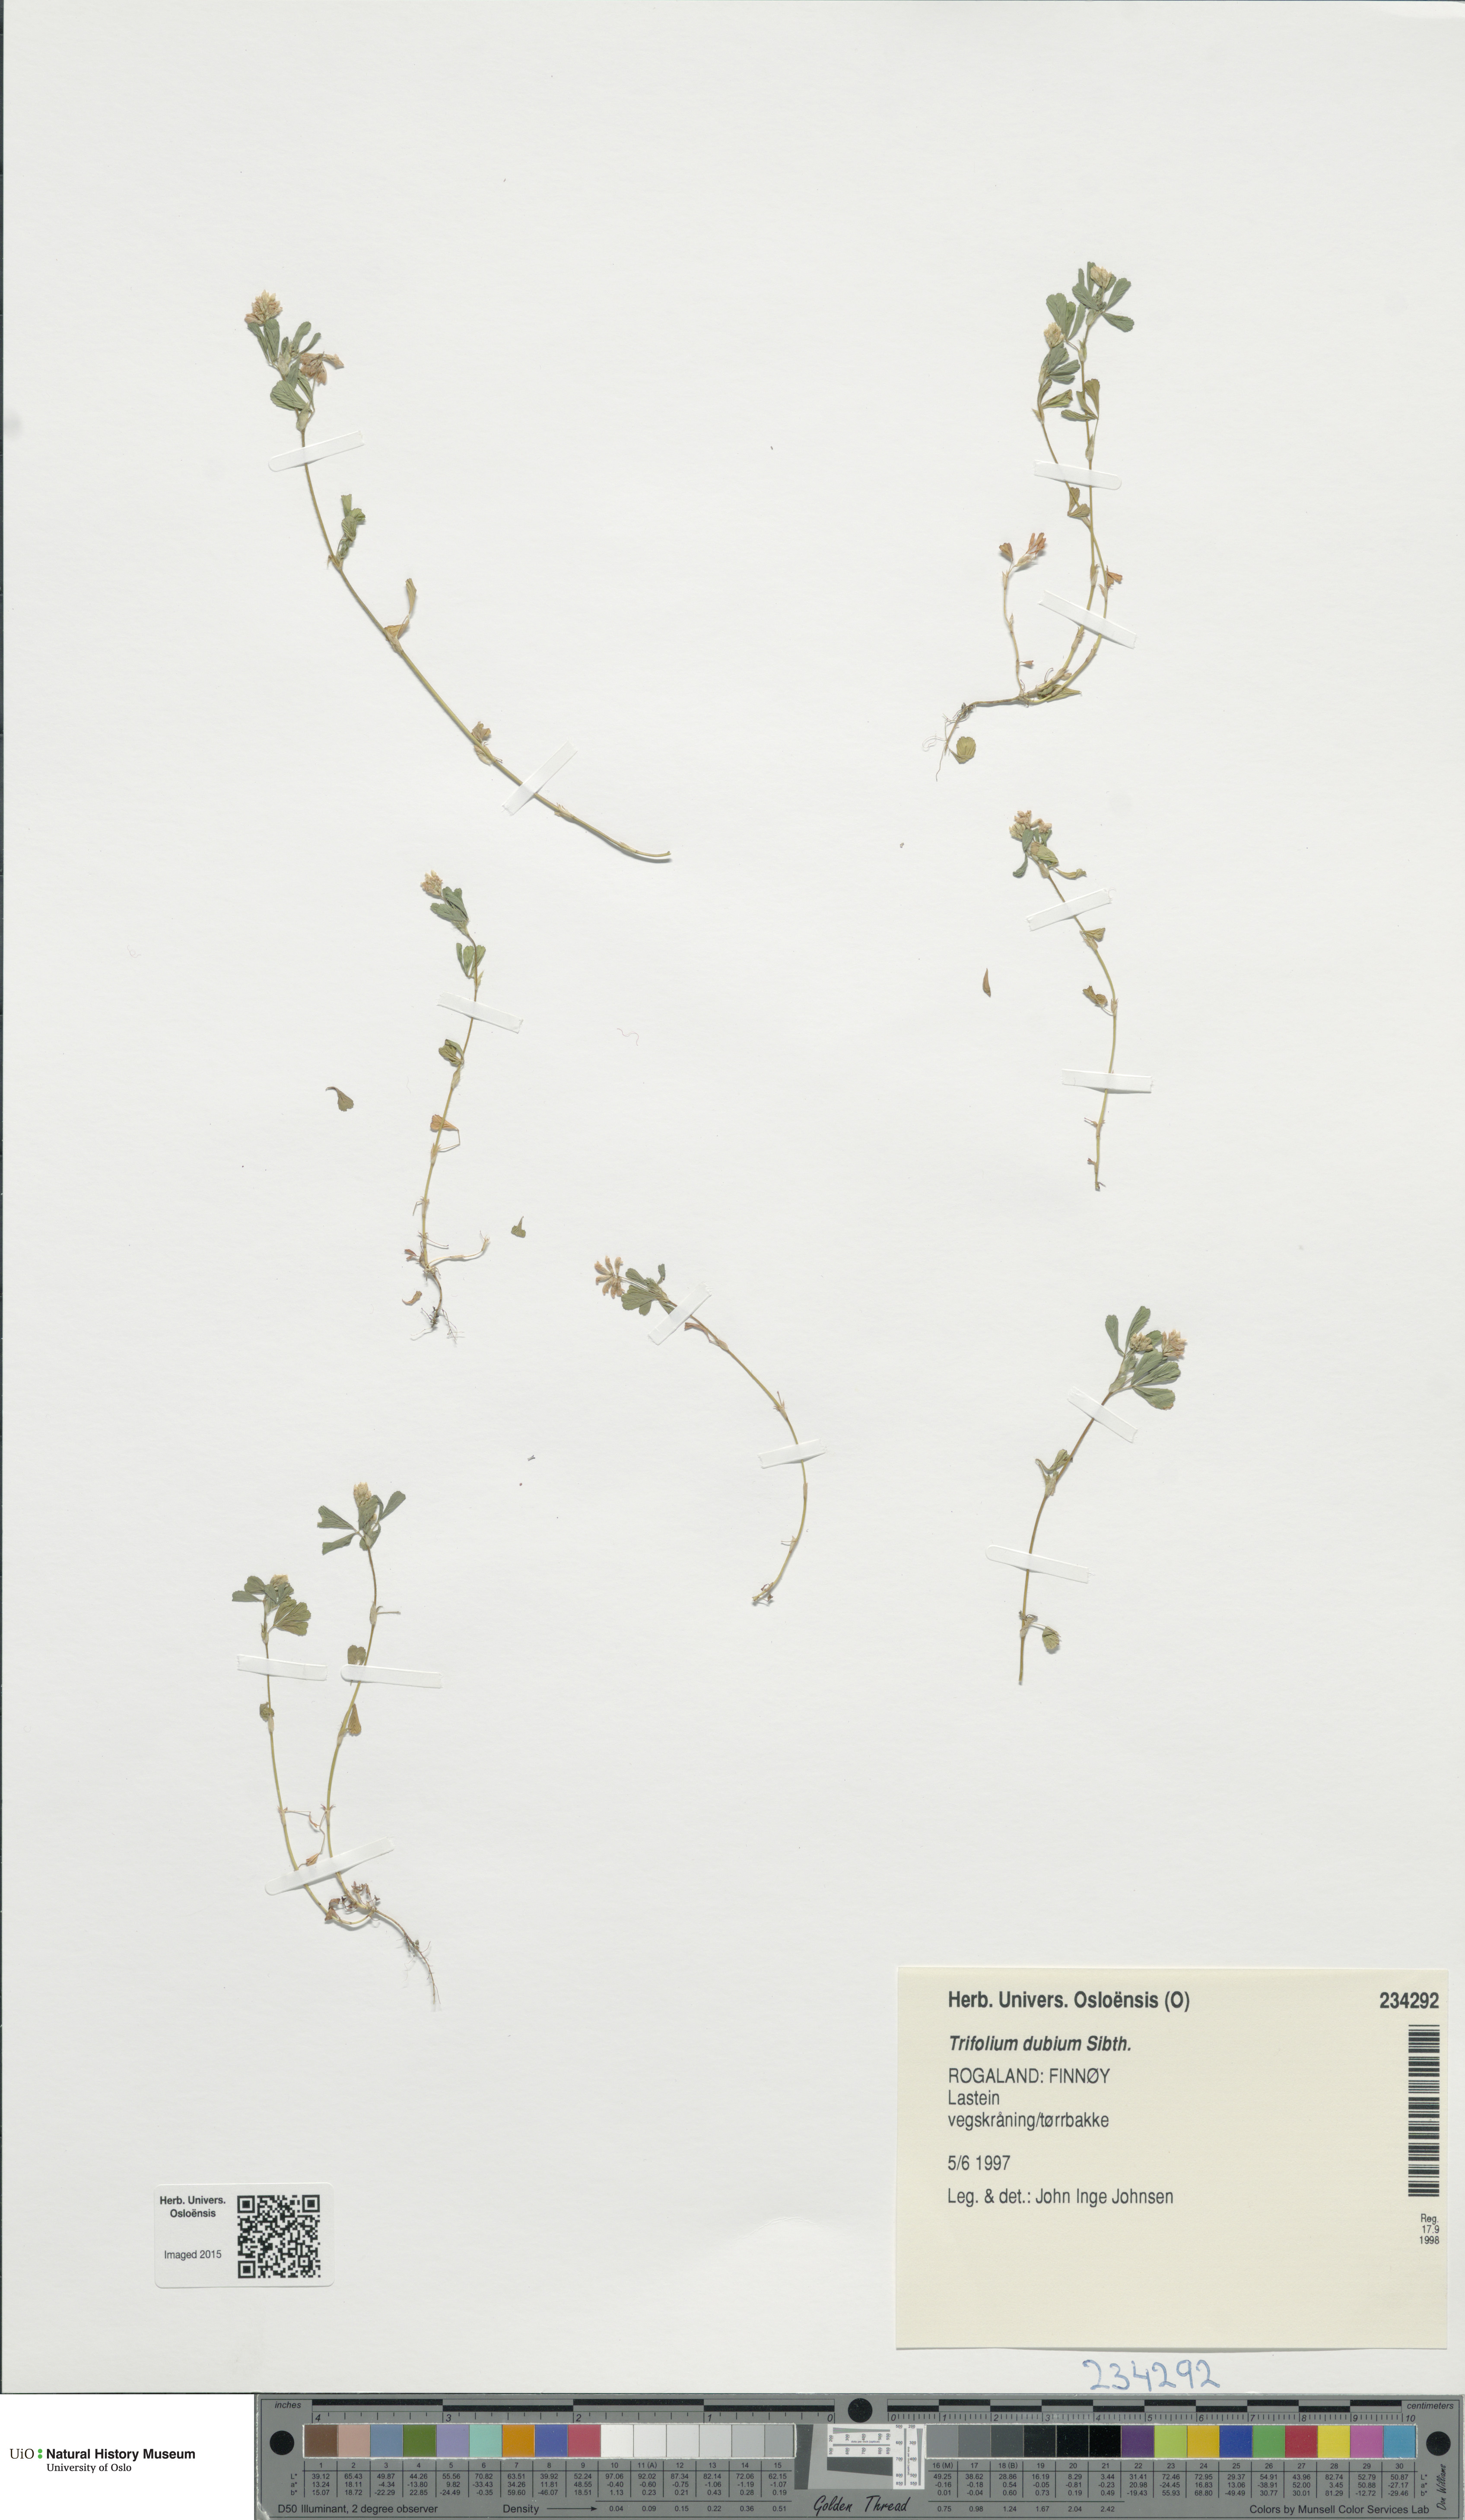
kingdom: Plantae
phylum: Tracheophyta
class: Magnoliopsida
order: Fabales
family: Fabaceae
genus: Trifolium
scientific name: Trifolium dubium
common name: Suckling clover
